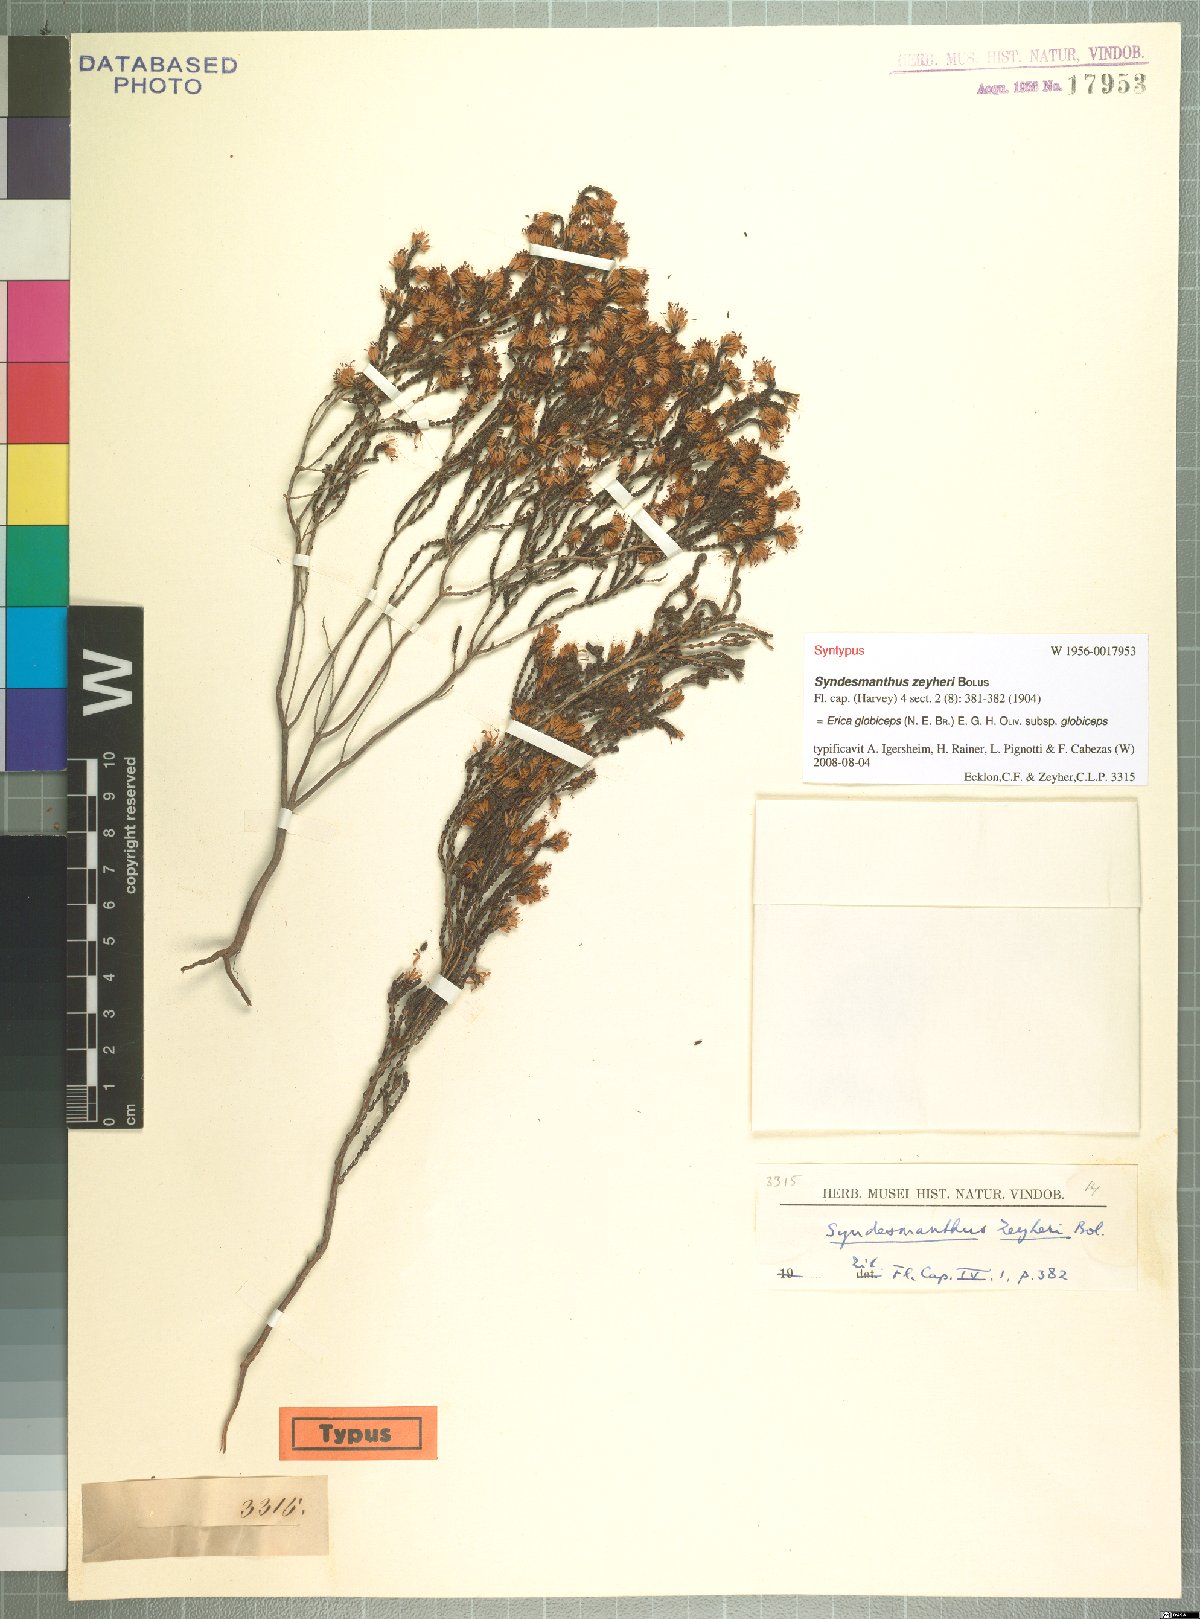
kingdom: Plantae
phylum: Tracheophyta
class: Magnoliopsida
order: Ericales
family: Ericaceae
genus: Erica
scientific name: Erica globiceps
